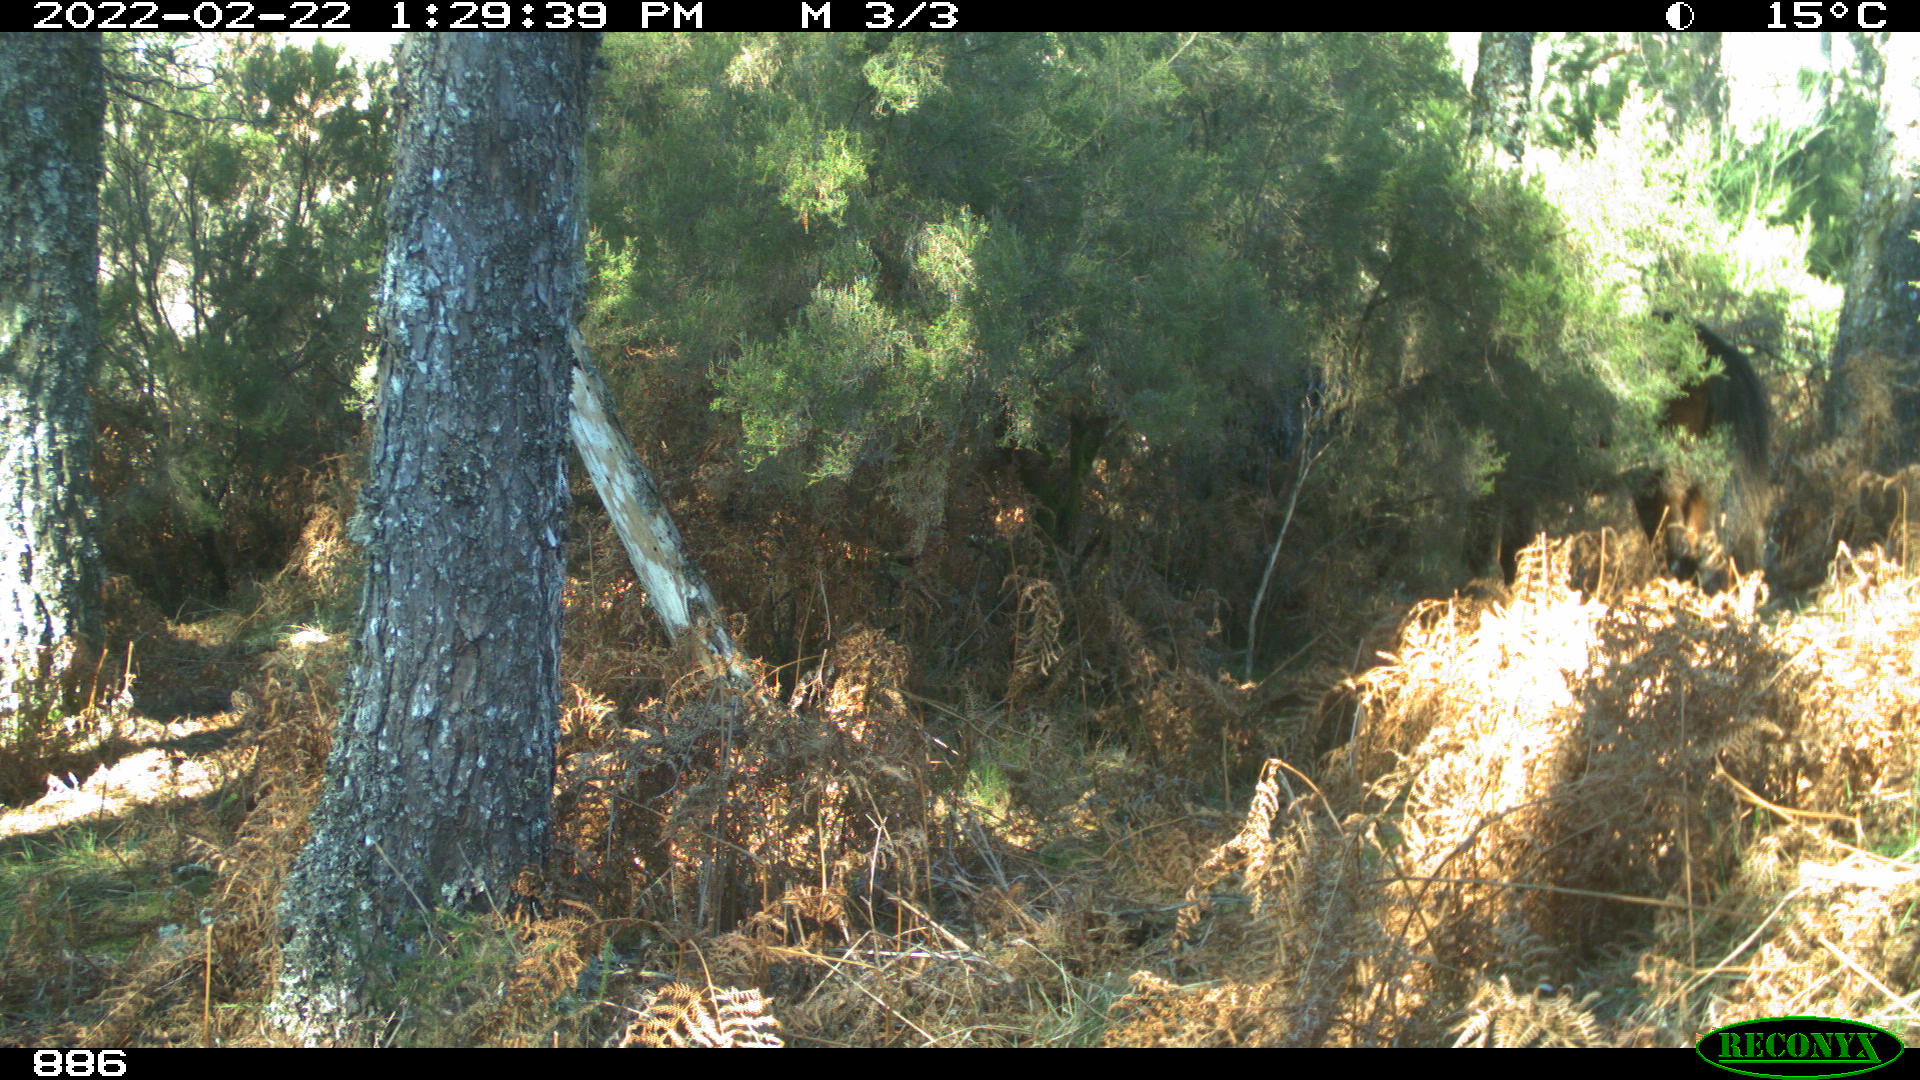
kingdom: Animalia
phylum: Chordata
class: Mammalia
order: Perissodactyla
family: Equidae
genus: Equus
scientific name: Equus caballus
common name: Horse
